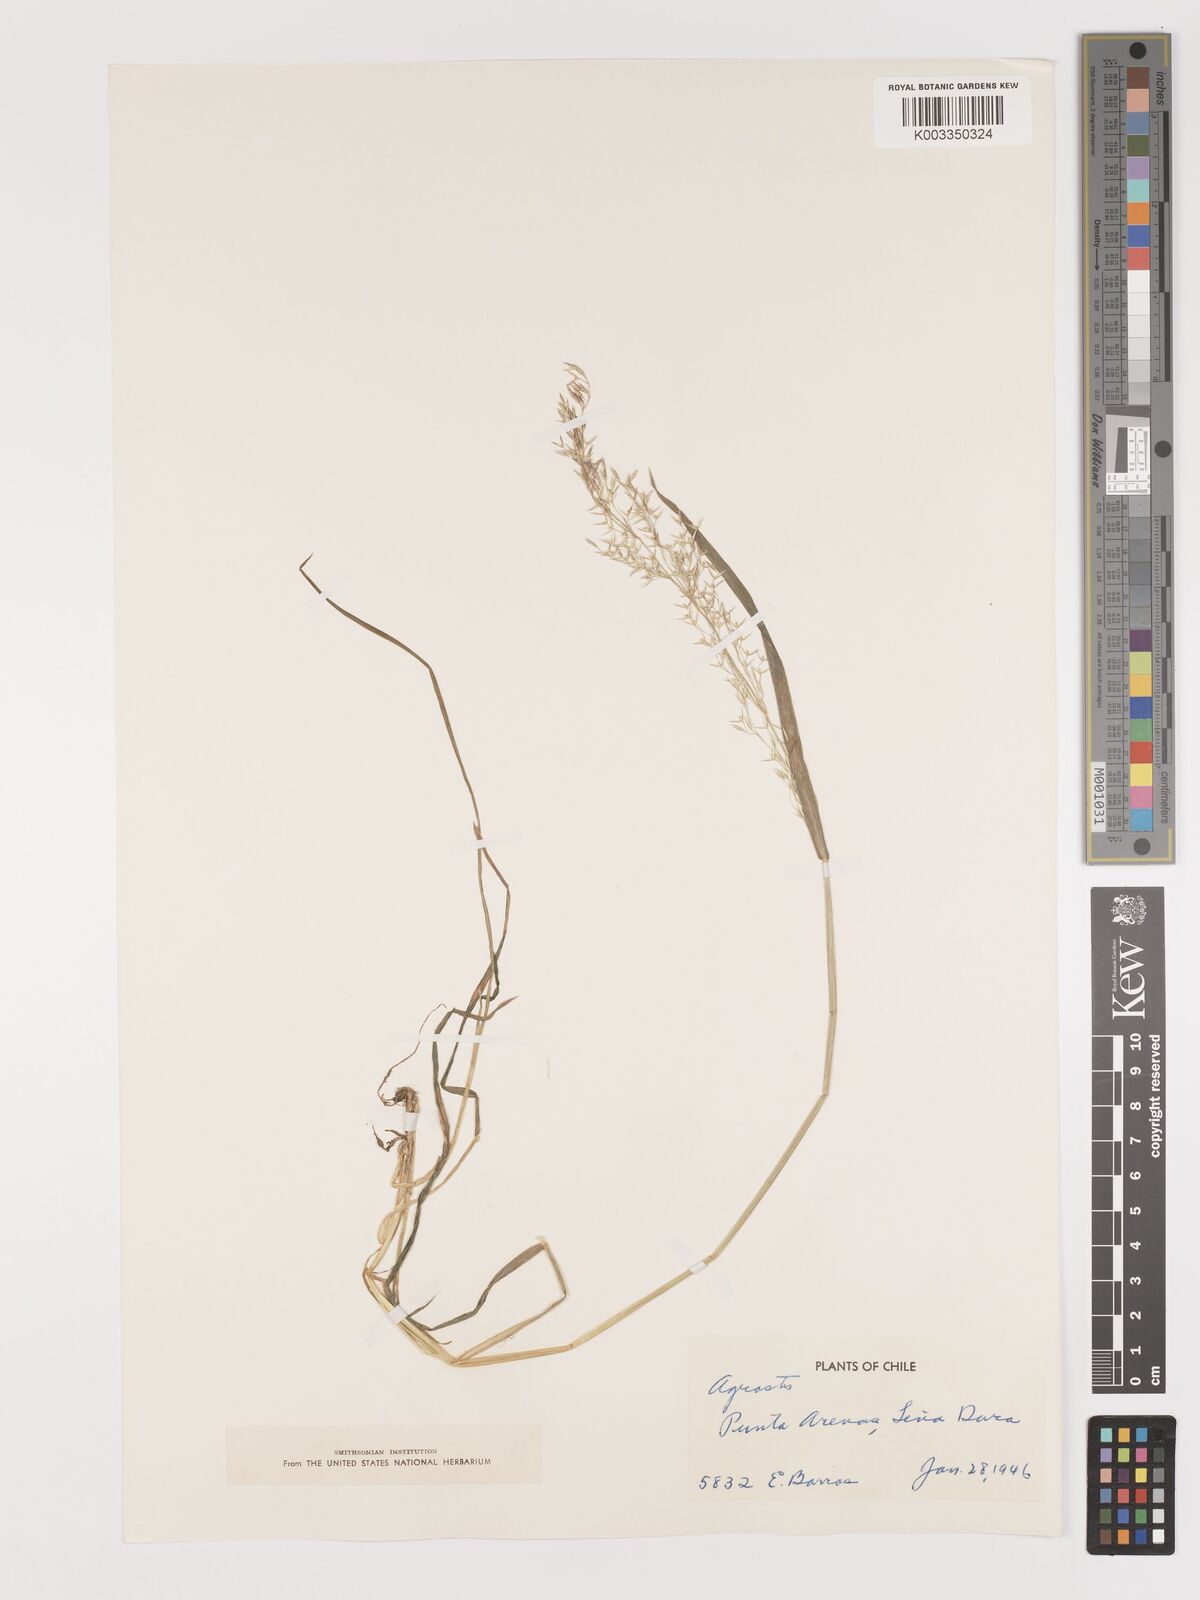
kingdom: Plantae
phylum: Tracheophyta
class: Liliopsida
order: Poales
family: Poaceae
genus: Agrostis
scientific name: Agrostis
